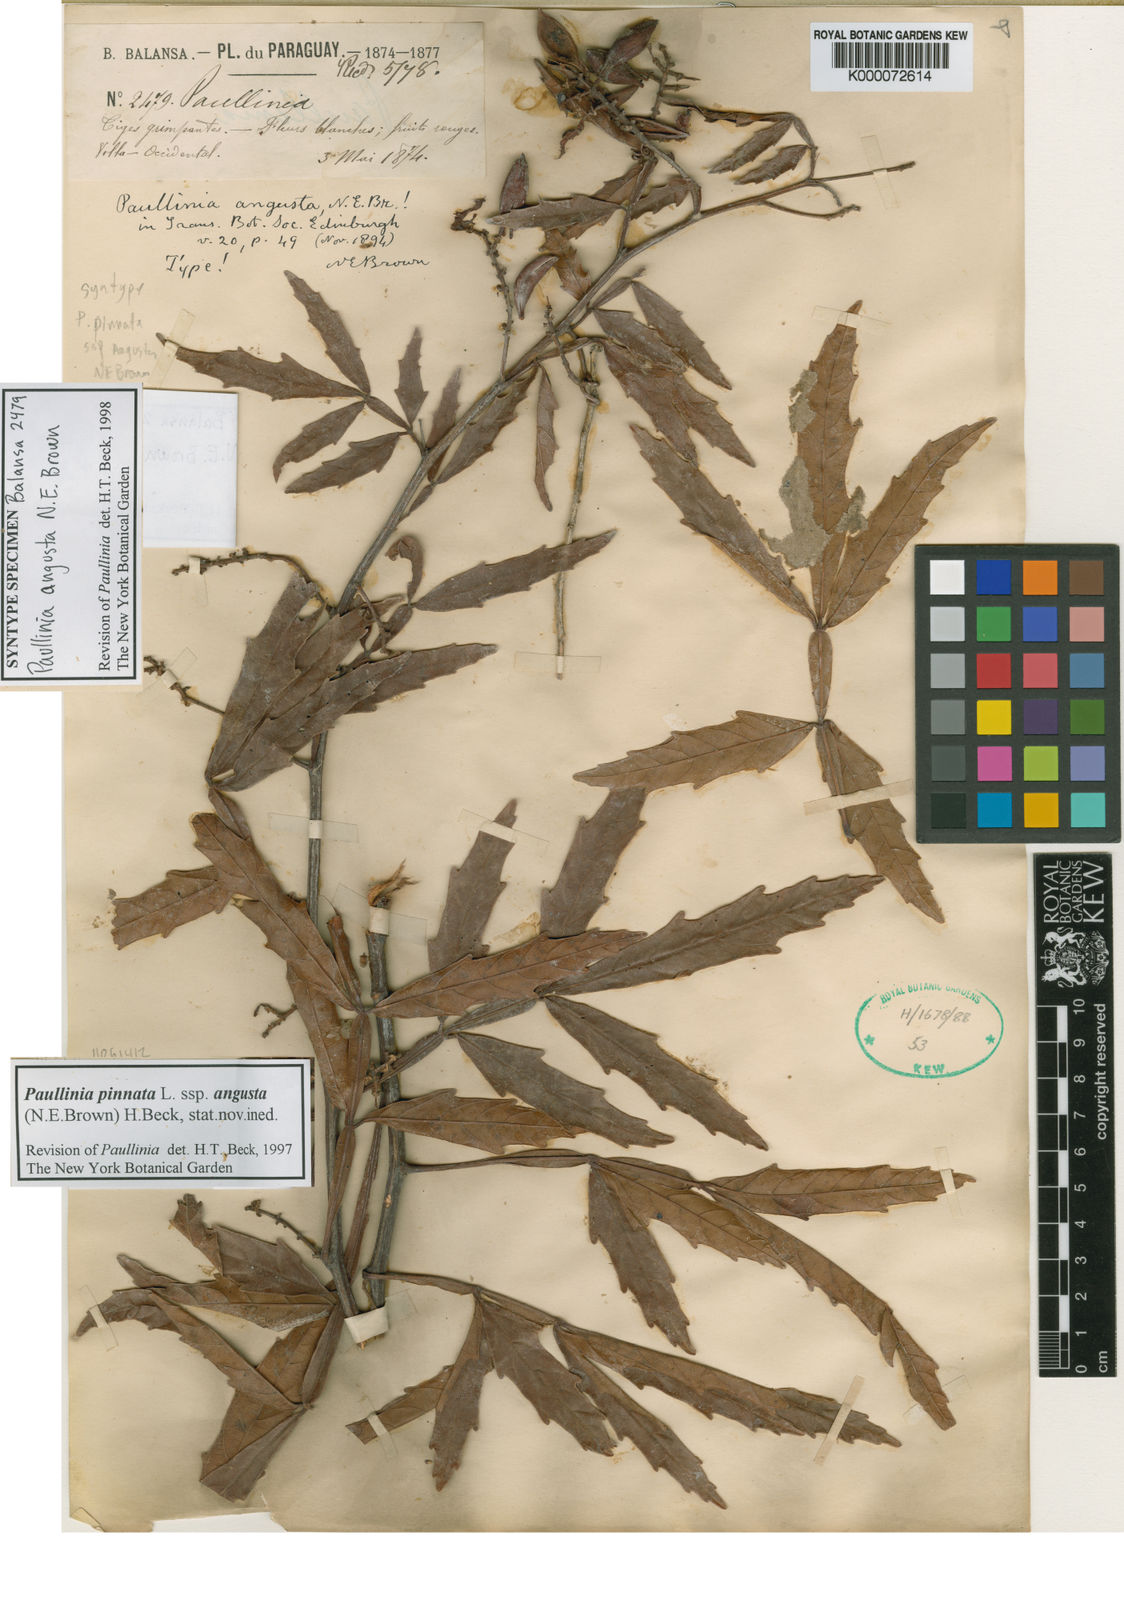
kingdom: Plantae
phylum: Tracheophyta
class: Magnoliopsida
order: Sapindales
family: Sapindaceae
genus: Paullinia
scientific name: Paullinia pinnata
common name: Barbasco
